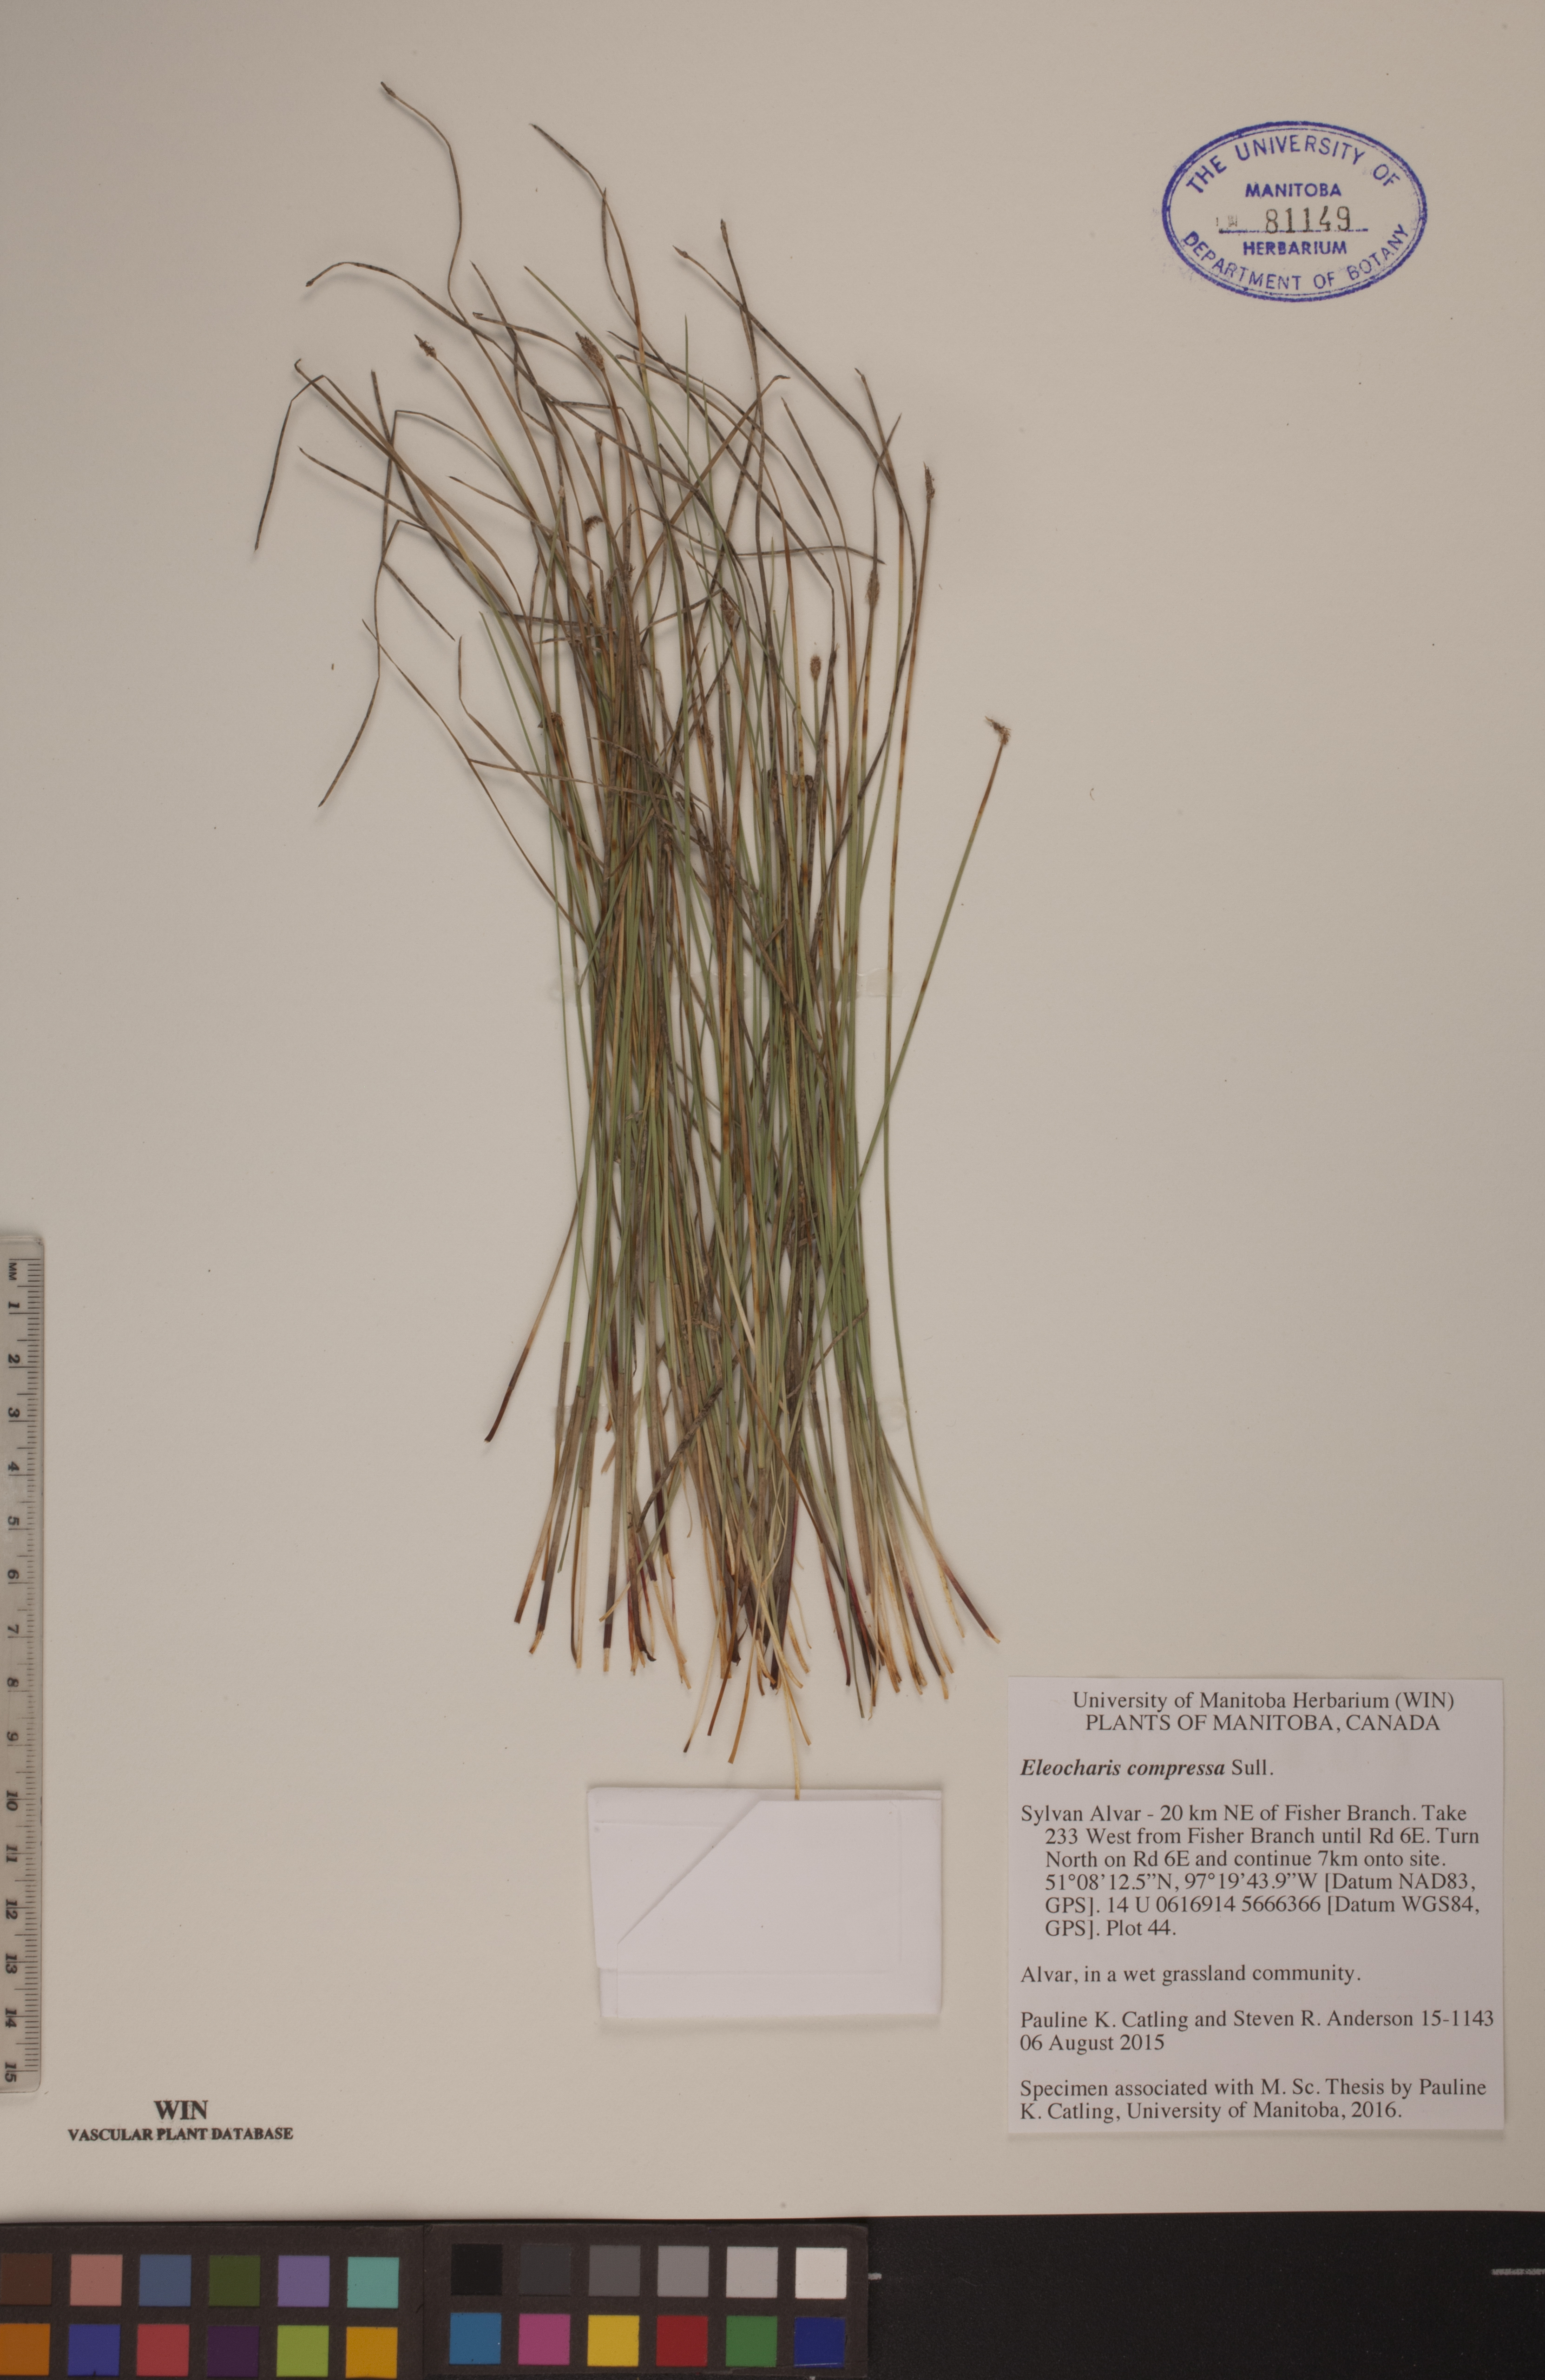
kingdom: Plantae
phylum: Tracheophyta
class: Liliopsida
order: Poales
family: Cyperaceae
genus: Eleocharis
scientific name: Eleocharis compressa
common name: Flat-stem spike-rush
